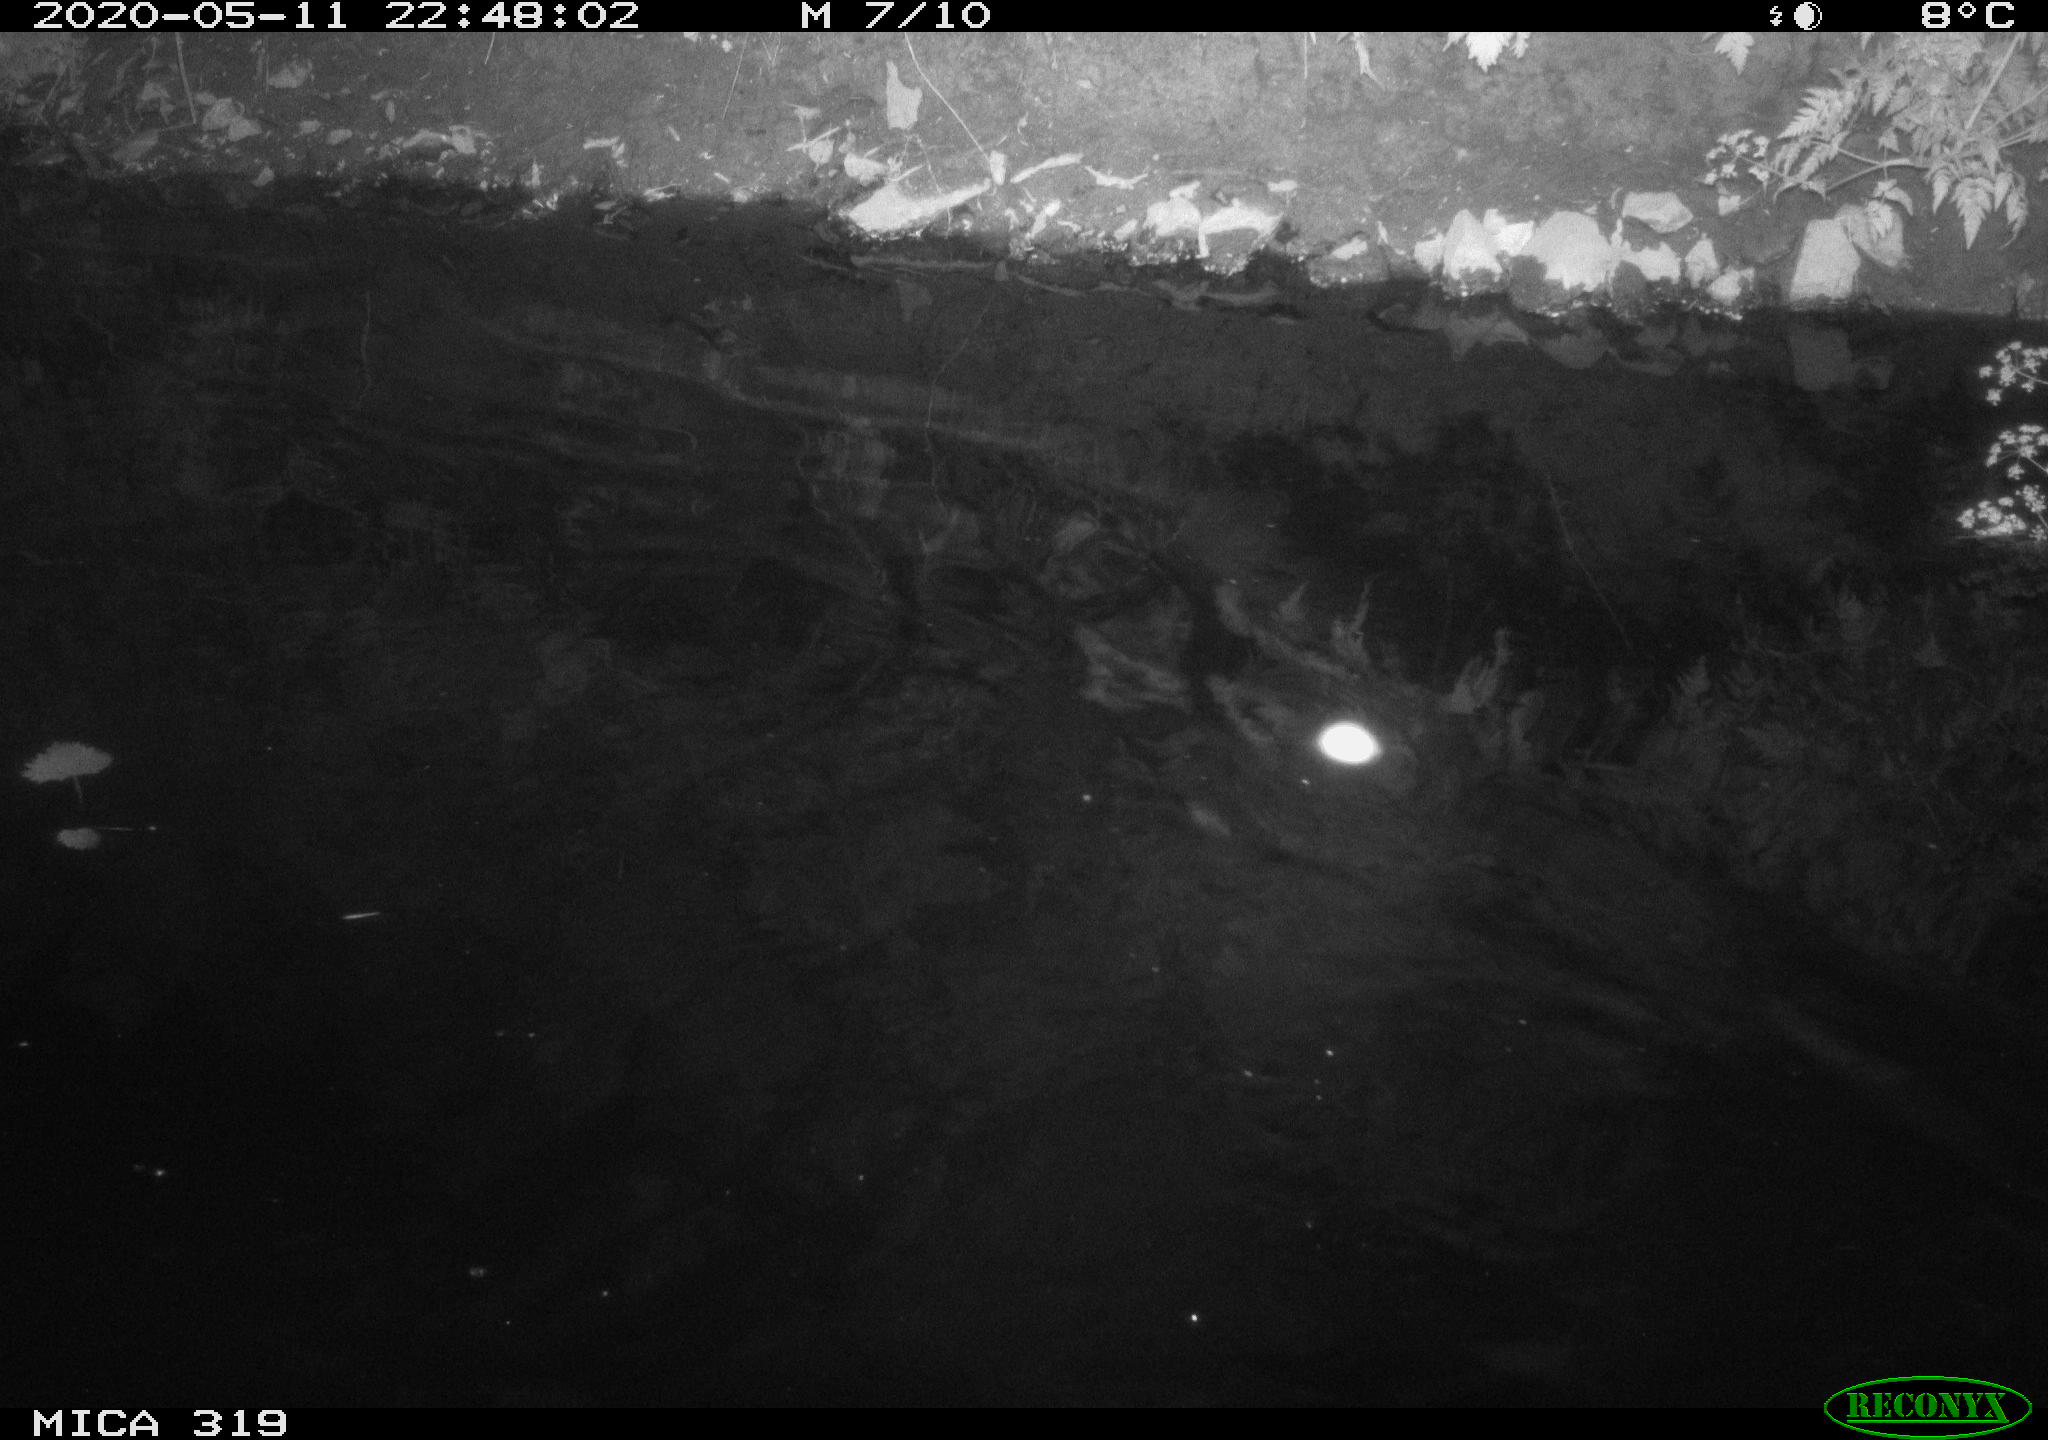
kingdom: Animalia
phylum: Chordata
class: Aves
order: Anseriformes
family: Anatidae
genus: Anas
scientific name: Anas platyrhynchos
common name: Mallard
